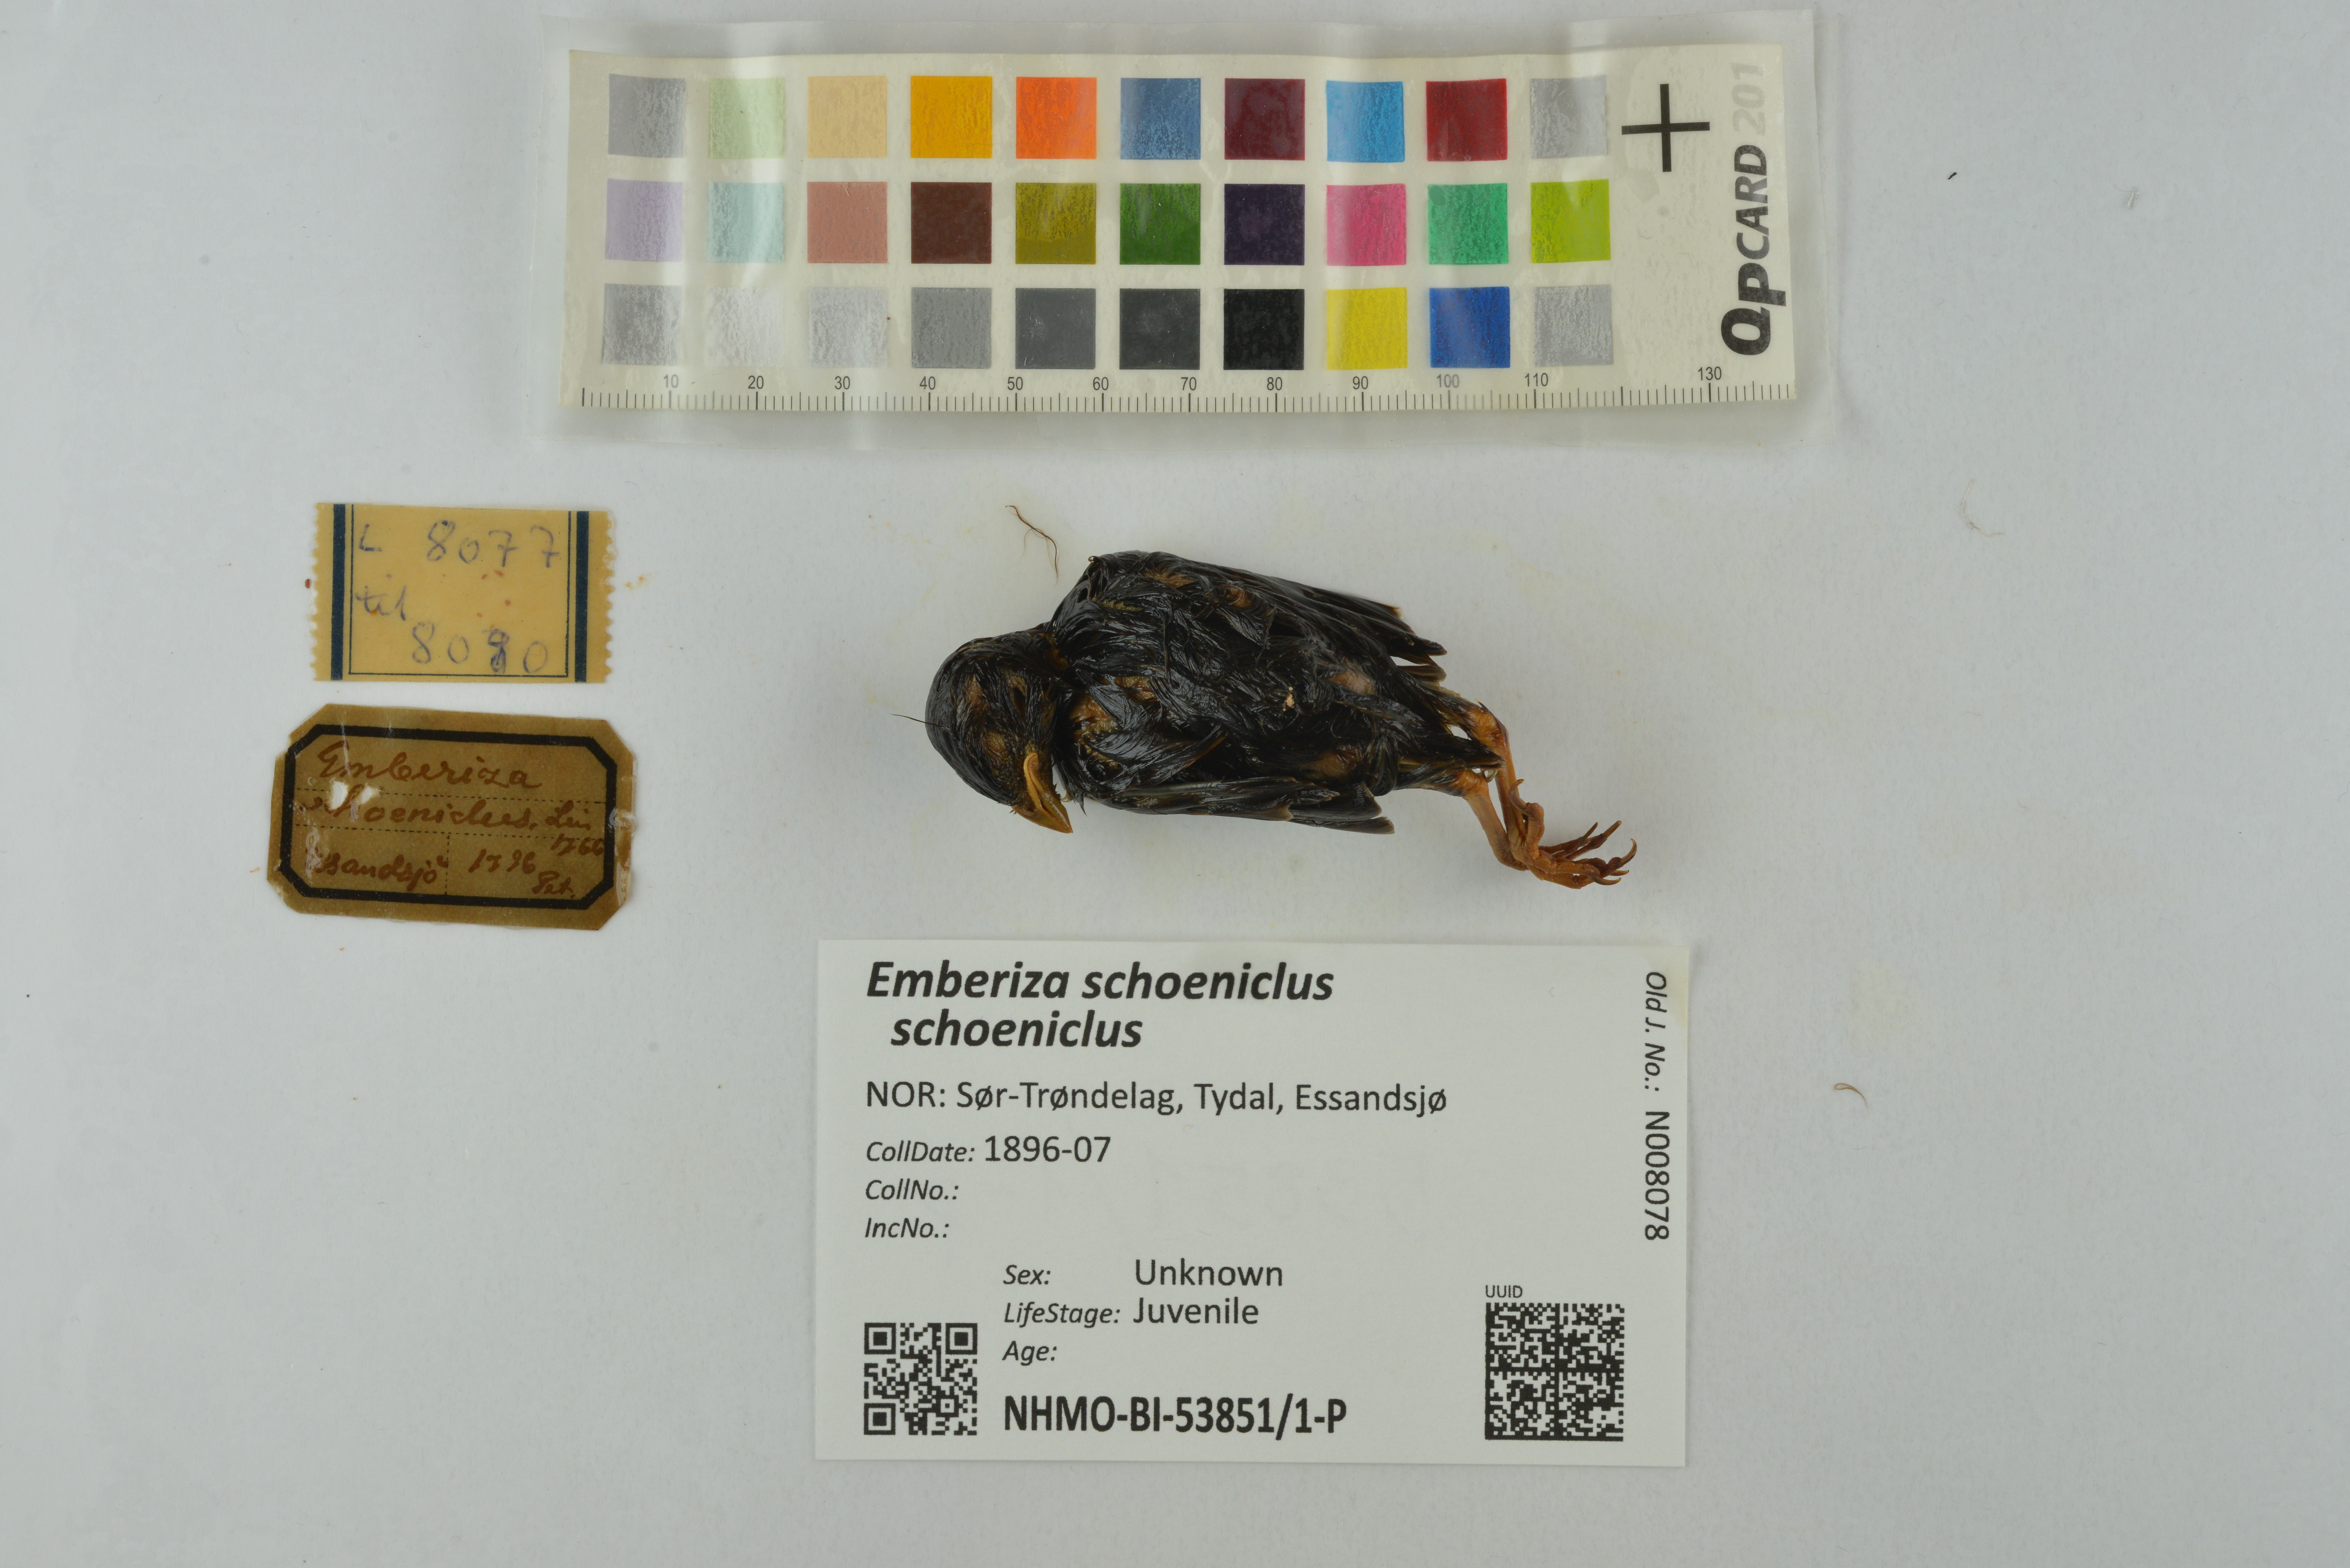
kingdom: Animalia
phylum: Chordata
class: Aves
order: Passeriformes
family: Emberizidae
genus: Emberiza
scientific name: Emberiza schoeniclus
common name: Reed bunting
